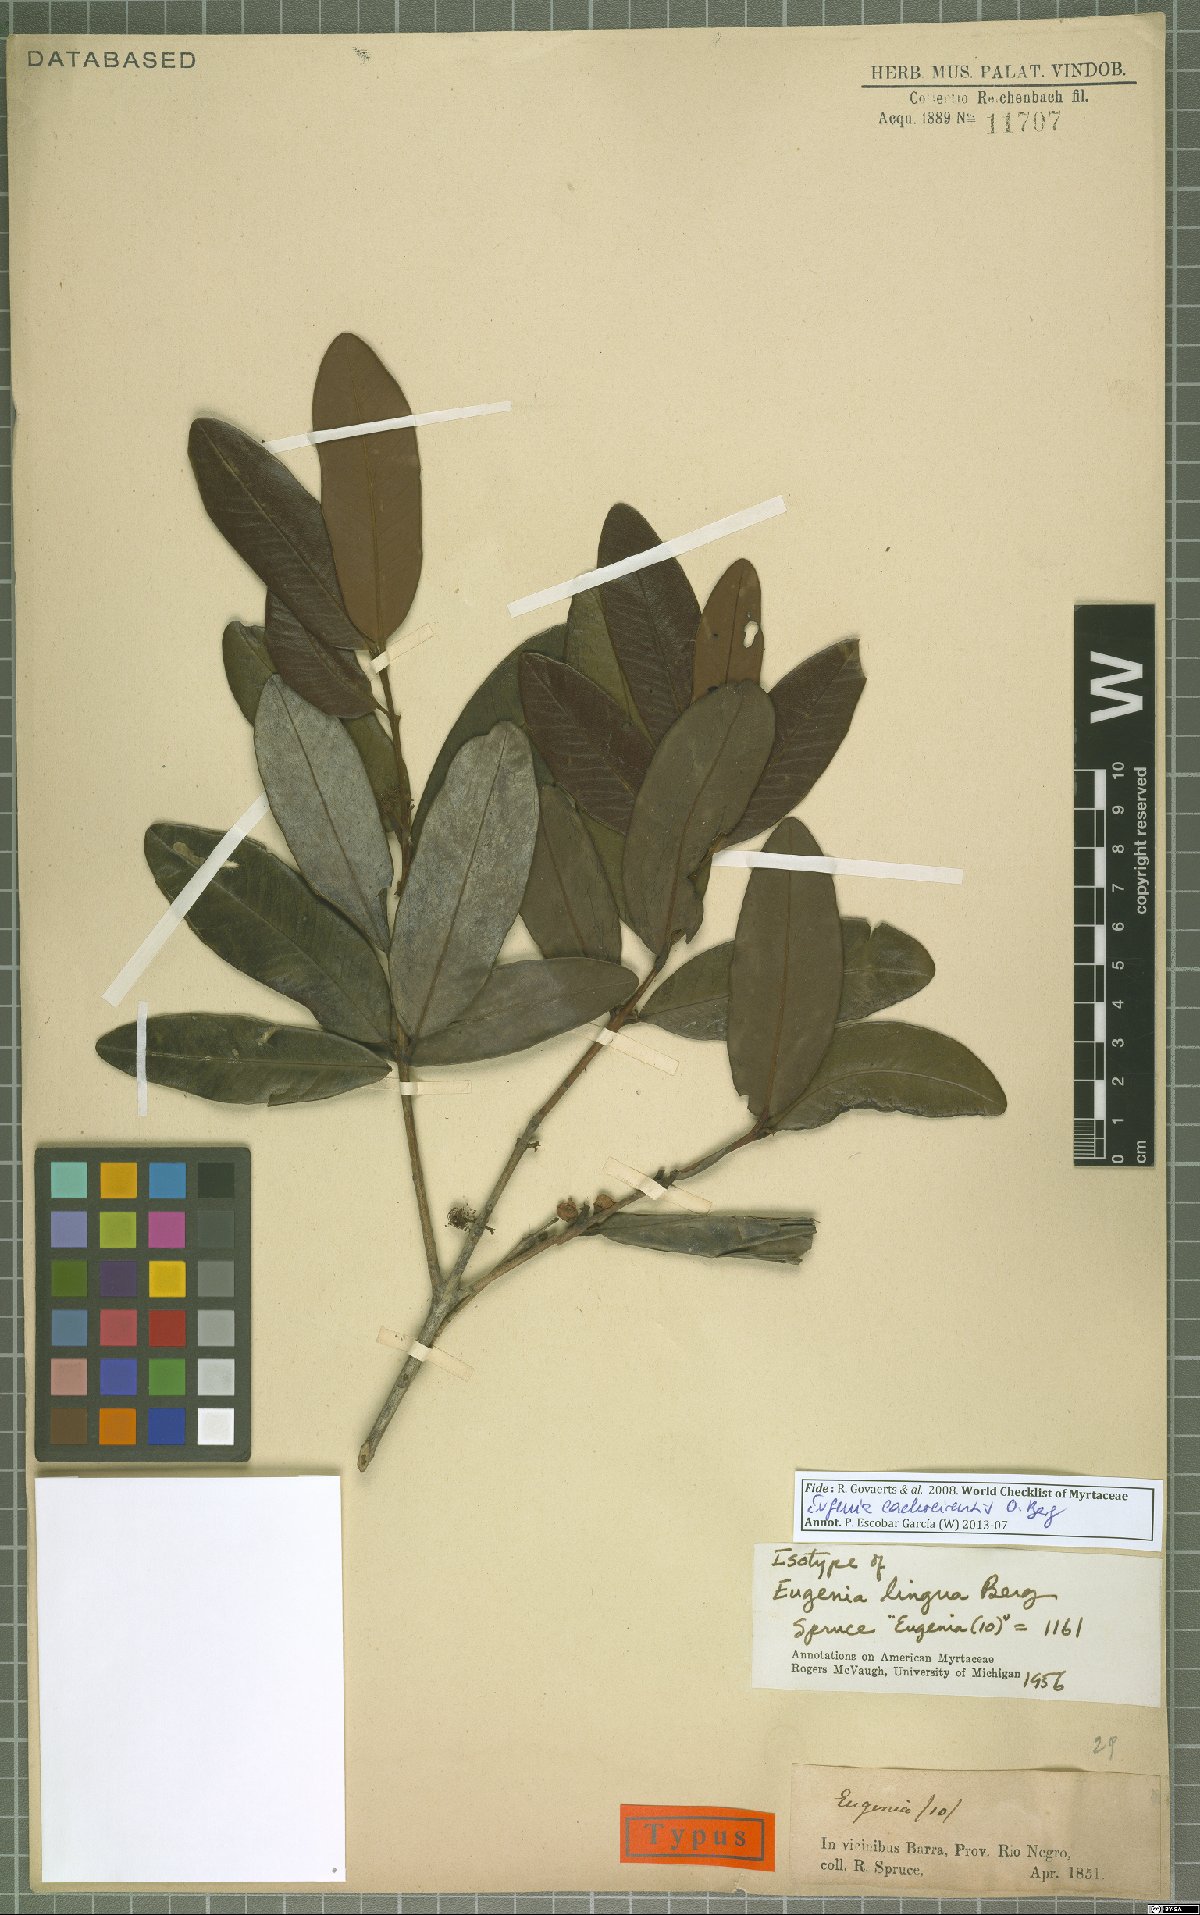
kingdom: Plantae
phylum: Tracheophyta
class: Magnoliopsida
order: Myrtales
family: Myrtaceae
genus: Eugenia
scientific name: Eugenia cachoeirensis
